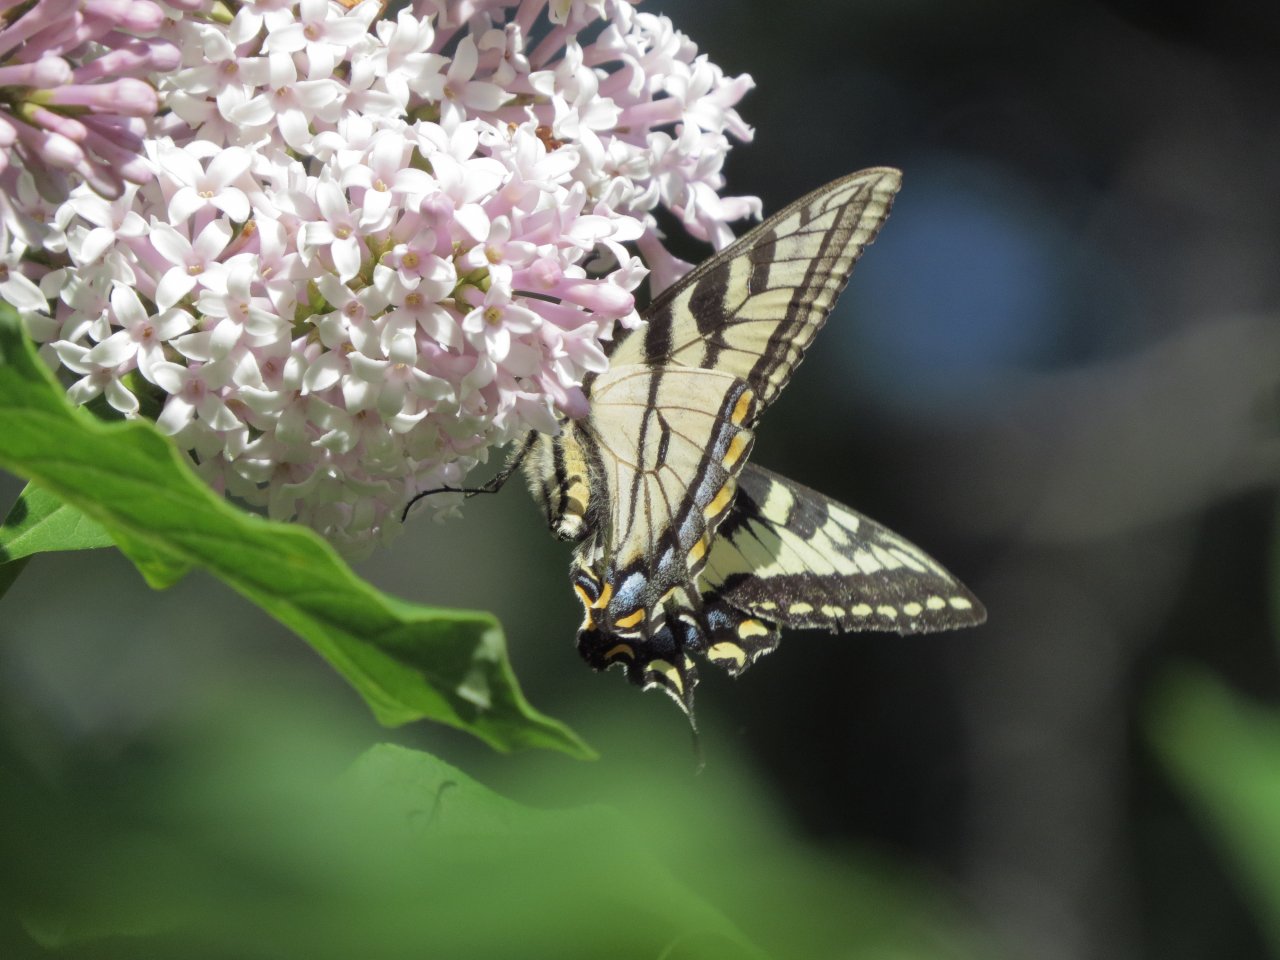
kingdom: Animalia
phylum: Arthropoda
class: Insecta
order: Lepidoptera
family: Papilionidae
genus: Pterourus
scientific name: Pterourus canadensis
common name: Canadian Tiger Swallowtail
